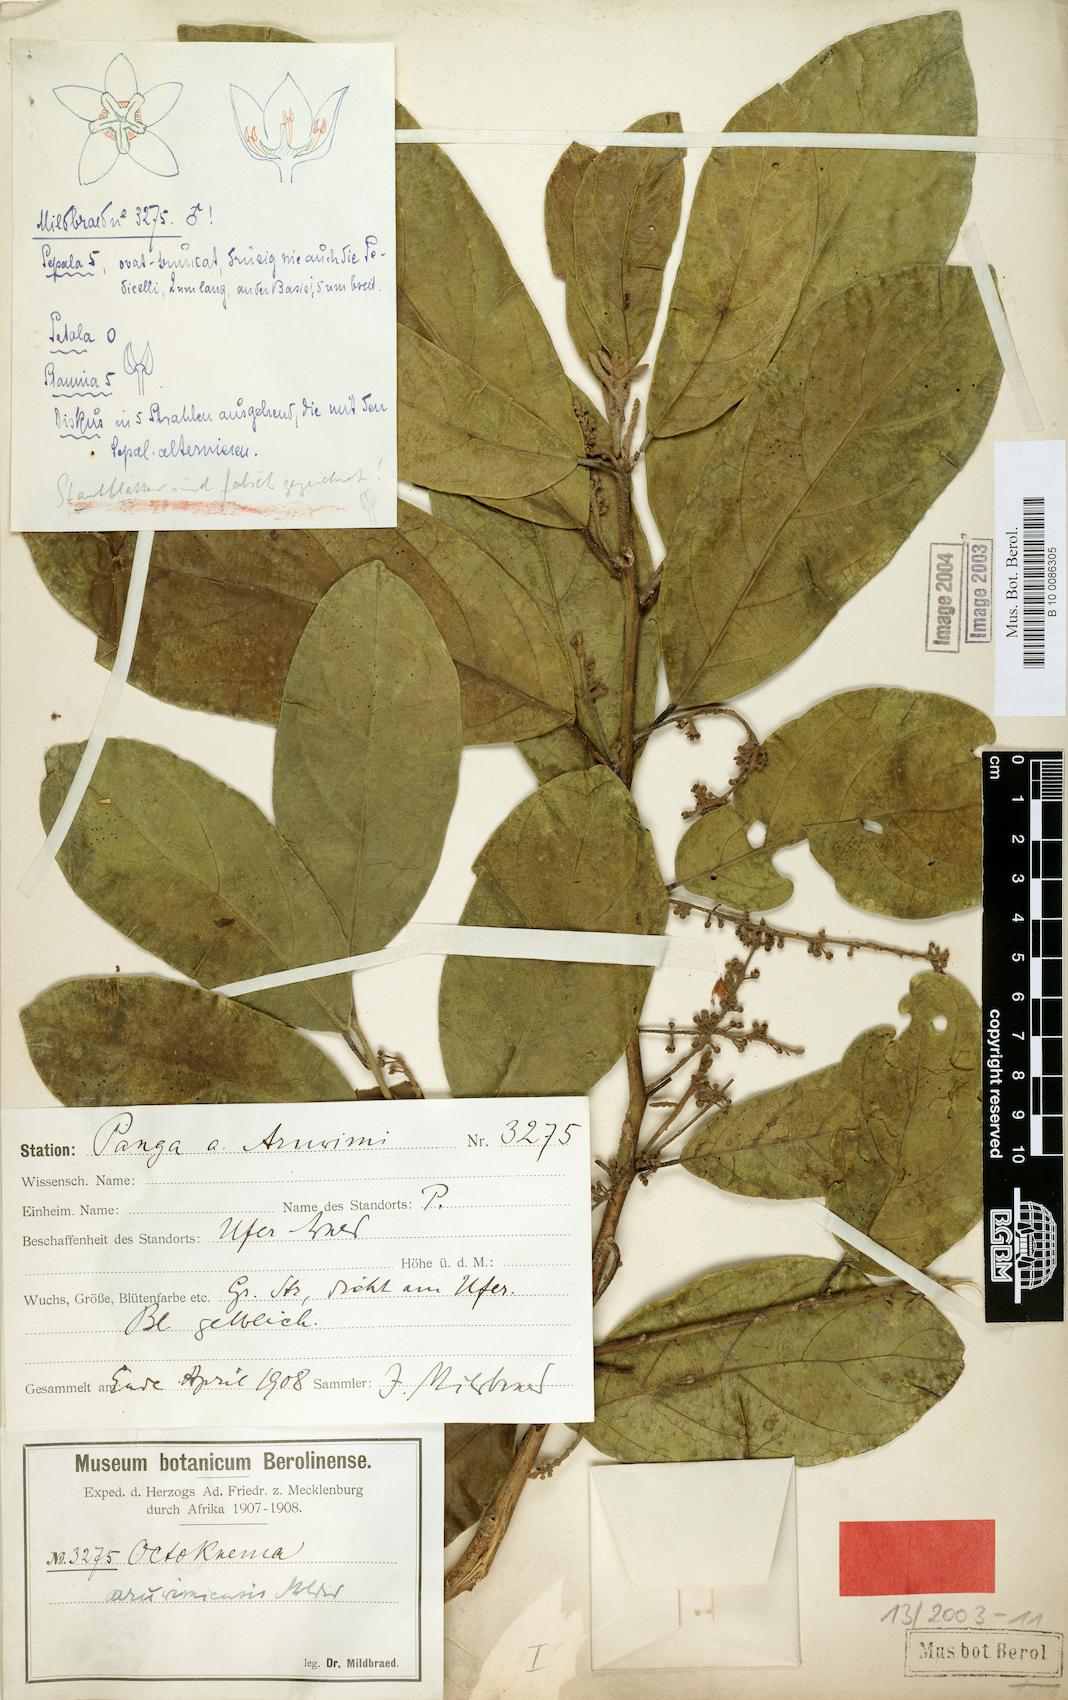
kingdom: Plantae
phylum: Tracheophyta
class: Magnoliopsida
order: Santalales
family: Octoknemaceae
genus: Octoknema
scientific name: Octoknema aruwimiensis
